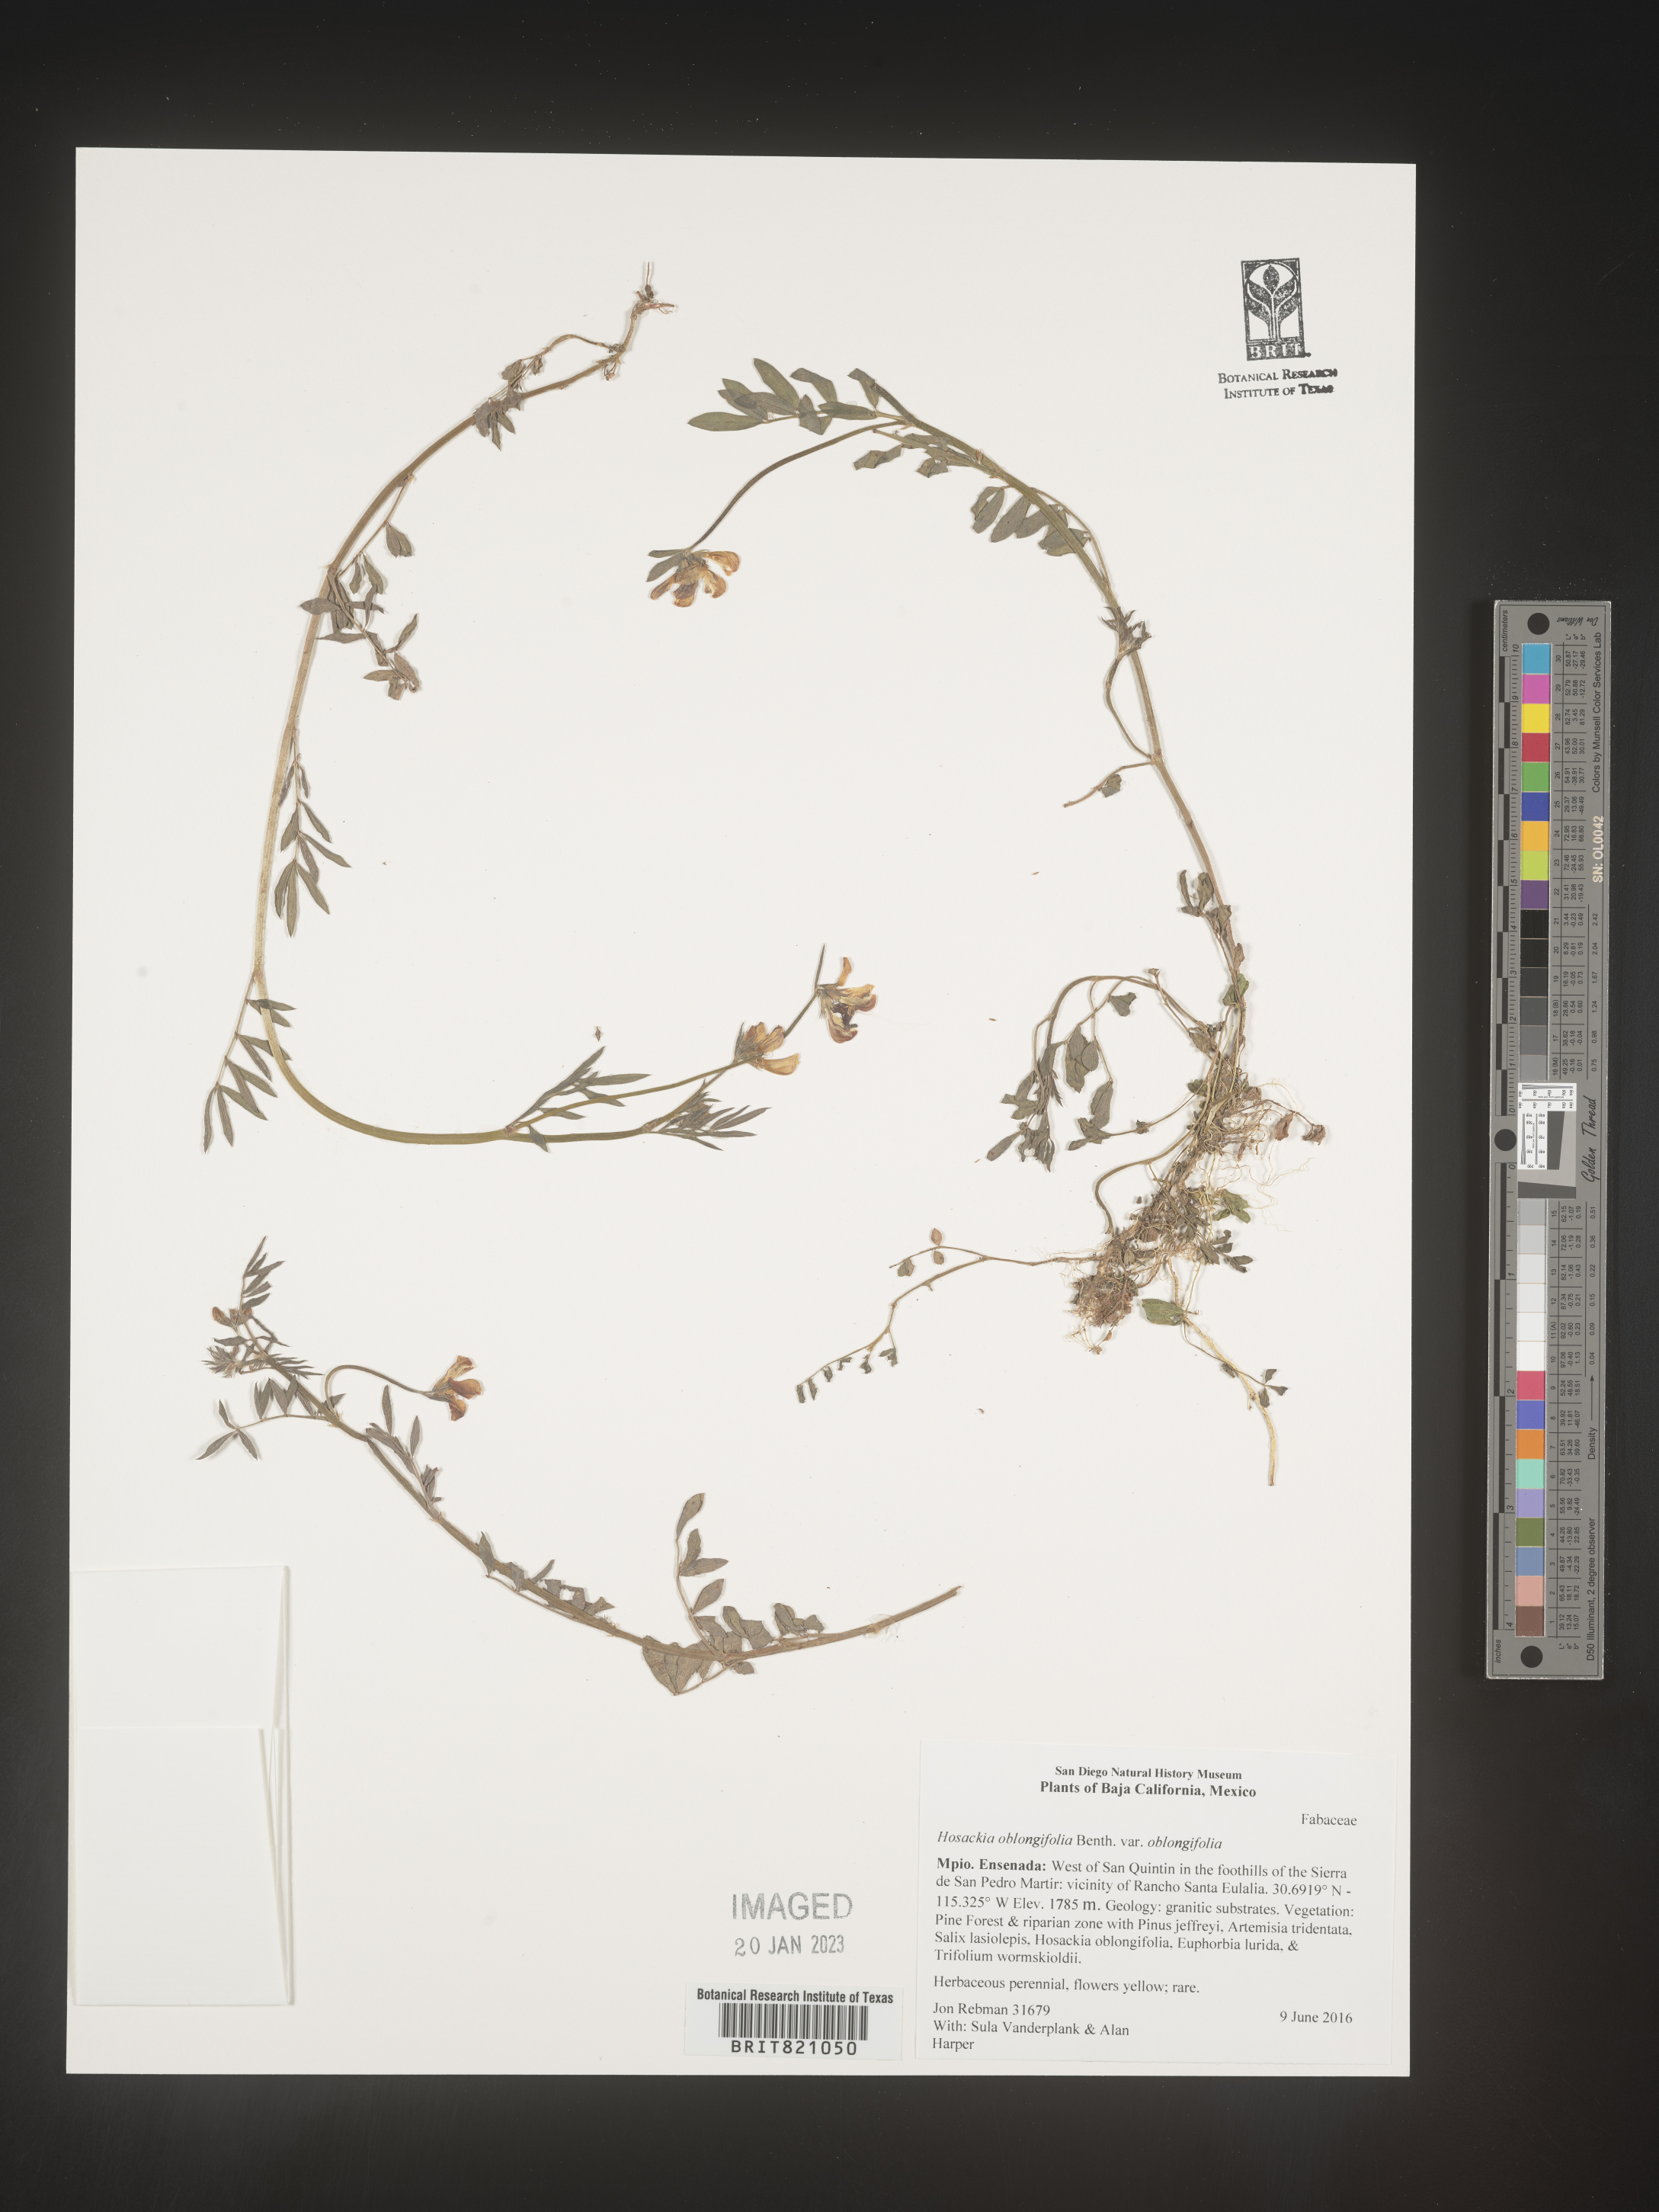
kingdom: Plantae
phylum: Tracheophyta
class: Magnoliopsida
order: Fabales
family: Fabaceae
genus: Hosackia
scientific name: Hosackia
